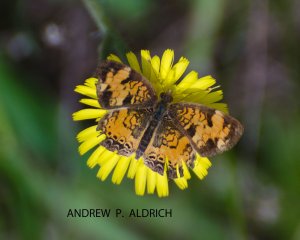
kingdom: Animalia
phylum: Arthropoda
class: Insecta
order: Lepidoptera
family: Nymphalidae
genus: Phyciodes
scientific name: Phyciodes tharos
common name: Pearl Crescent
